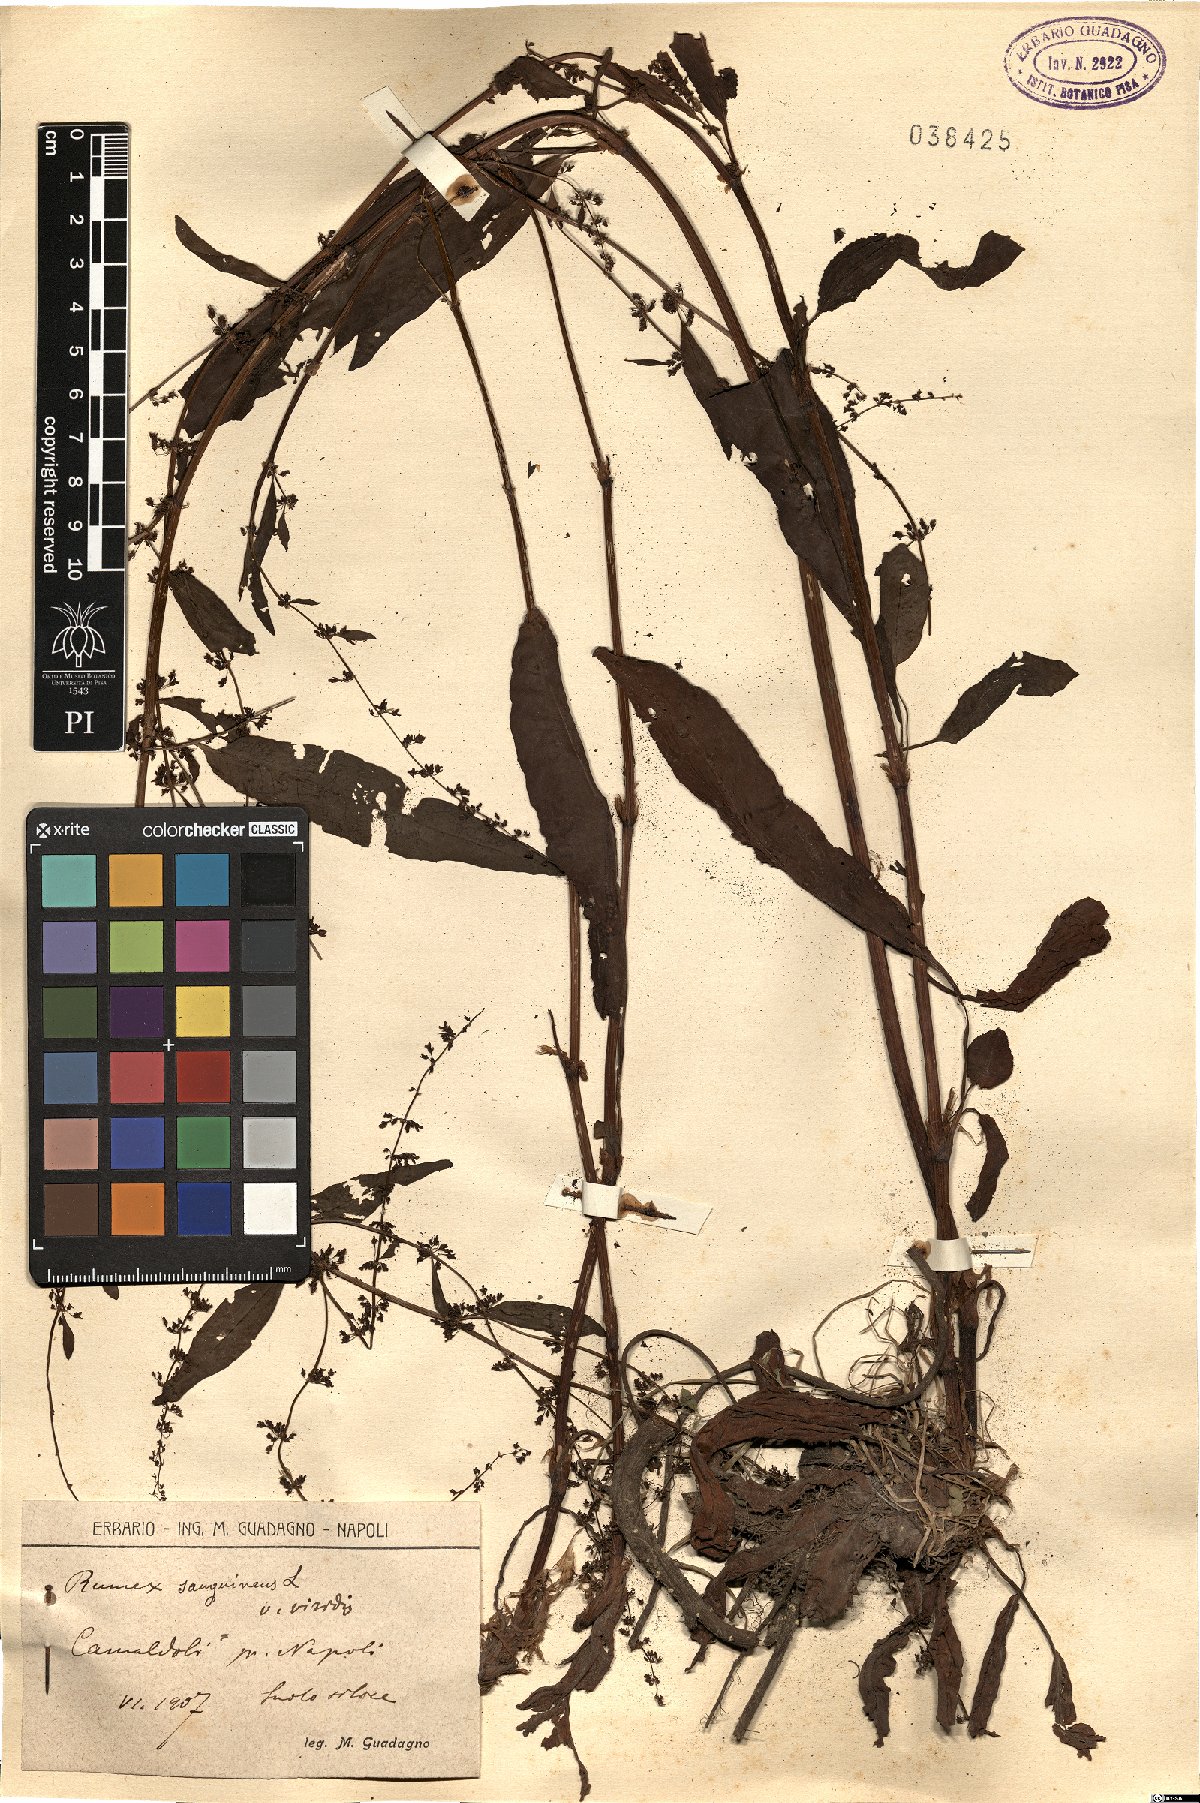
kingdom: Plantae
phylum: Tracheophyta
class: Magnoliopsida
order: Caryophyllales
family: Polygonaceae
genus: Rumex
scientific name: Rumex sanguineus
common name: Wood dock
